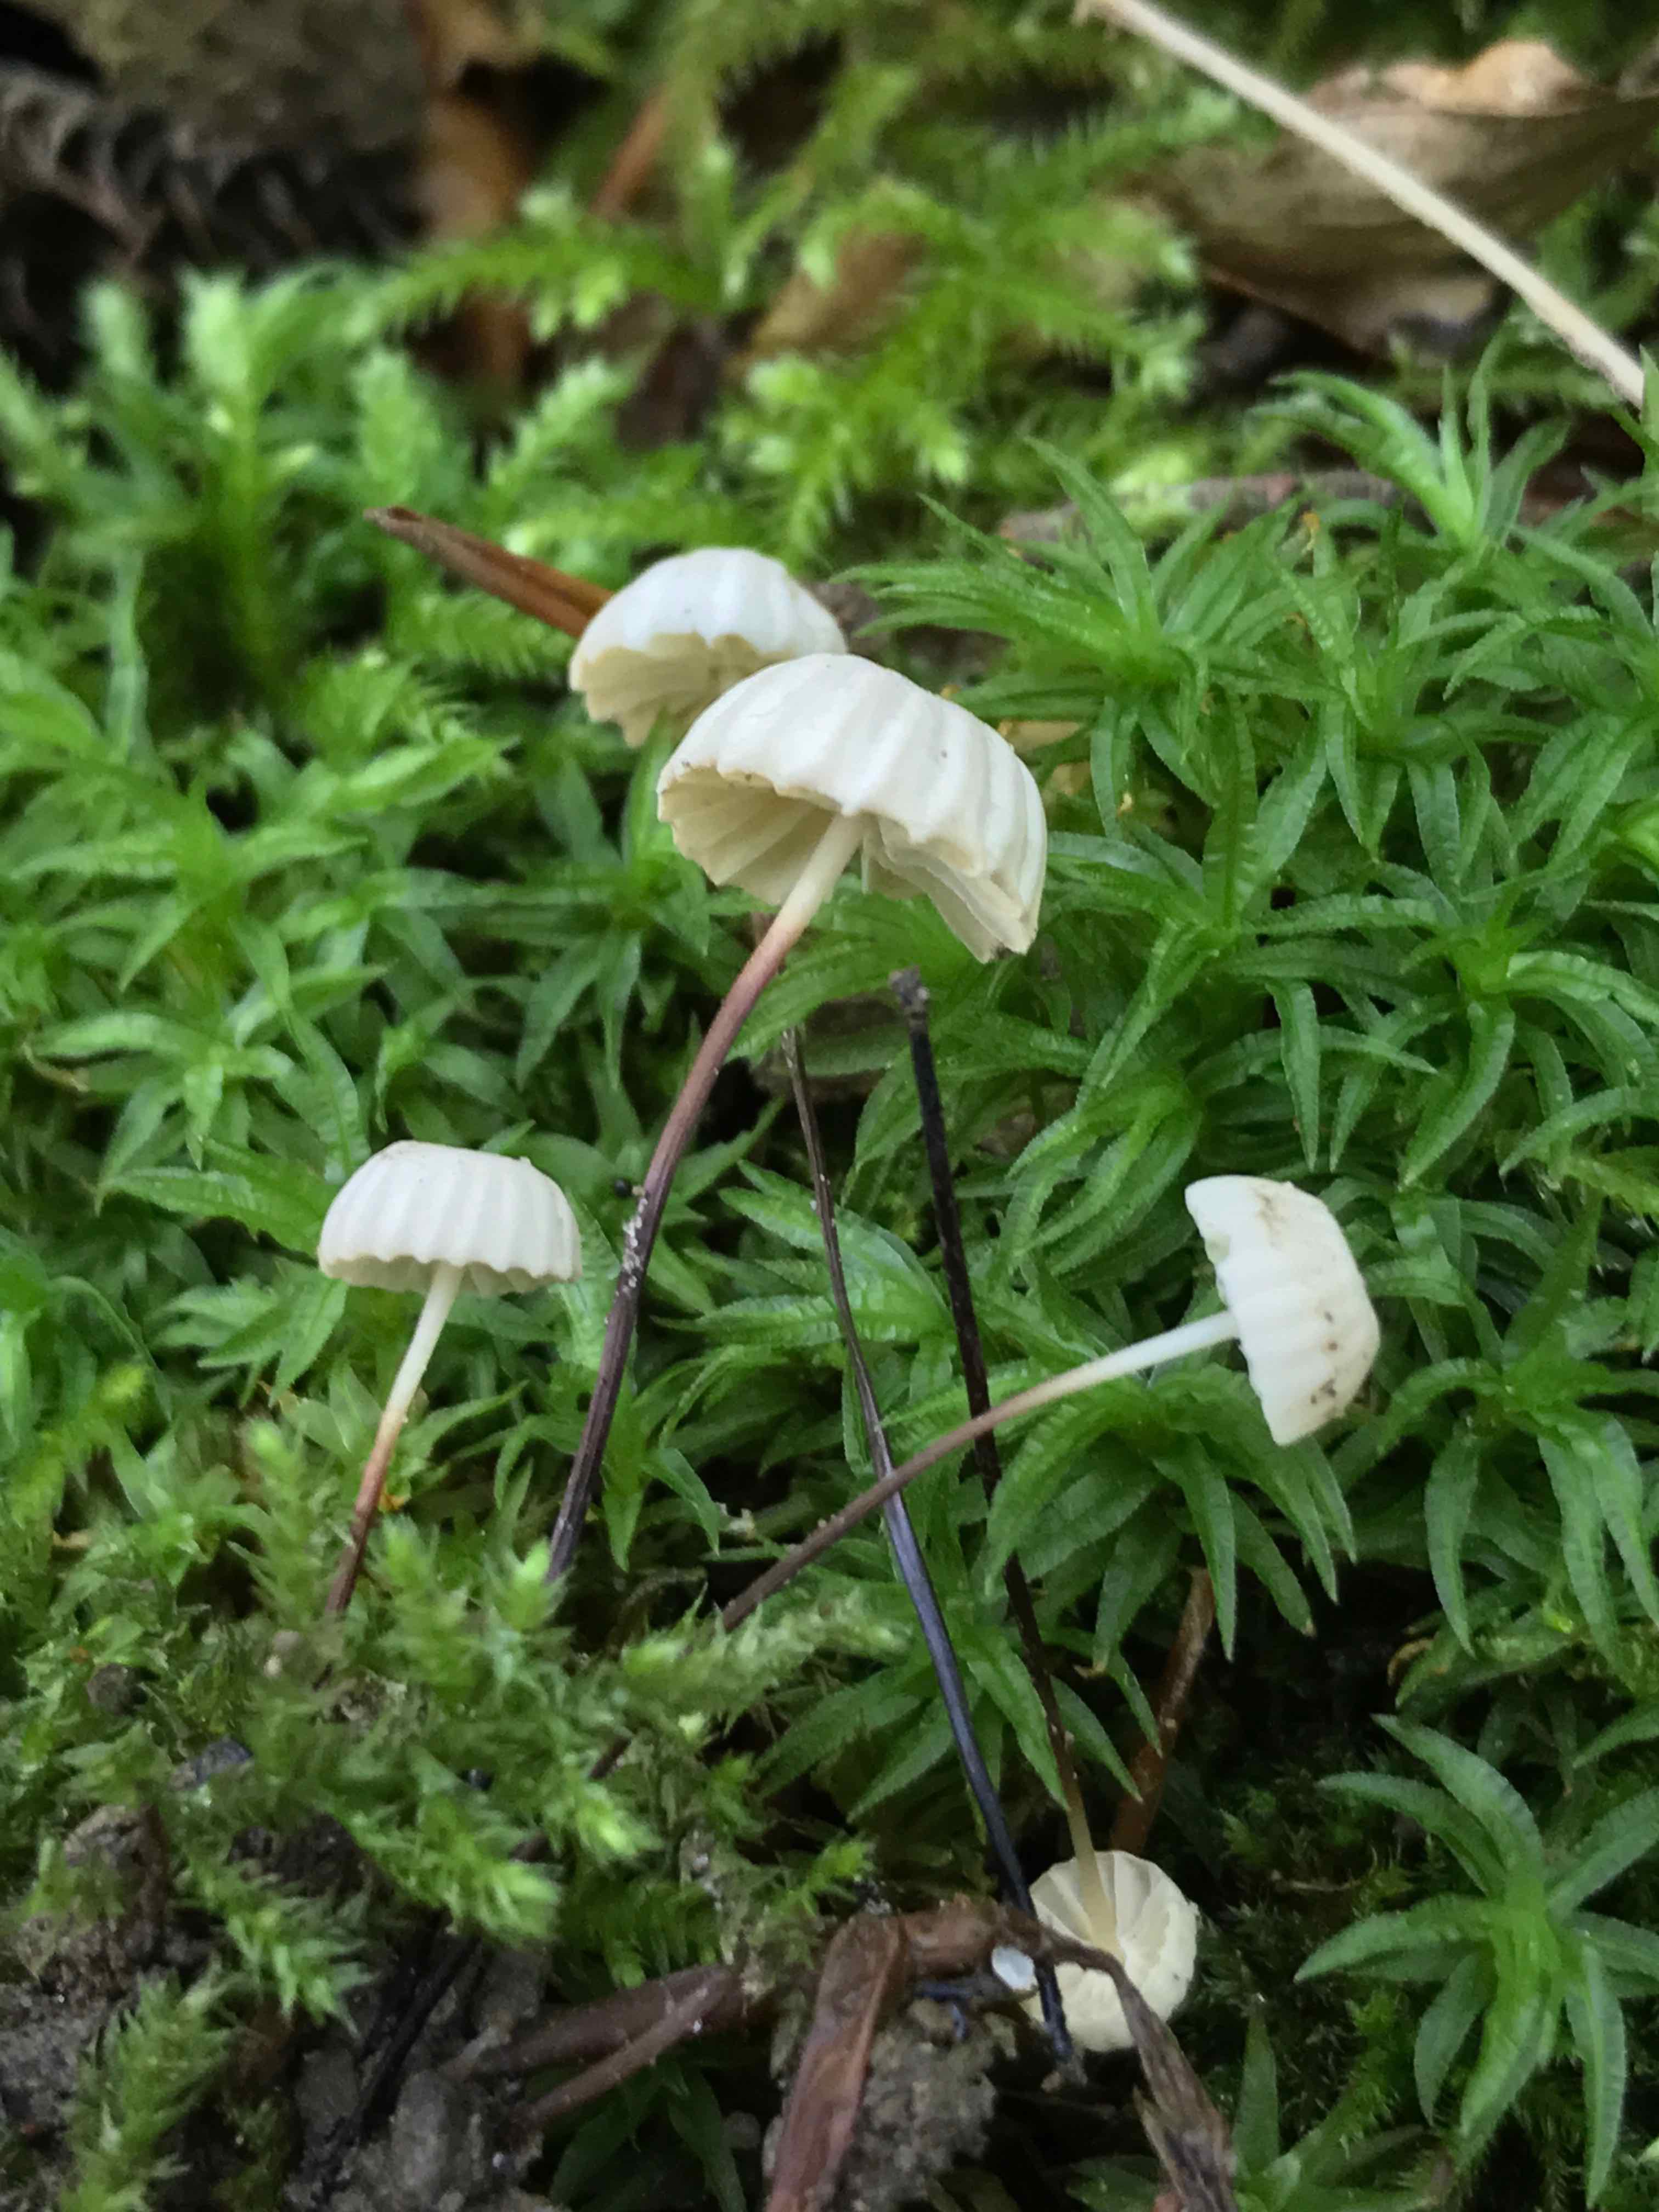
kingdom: Fungi
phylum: Basidiomycota
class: Agaricomycetes
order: Agaricales
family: Marasmiaceae
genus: Marasmius
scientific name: Marasmius rotula
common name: hjul-bruskhat
